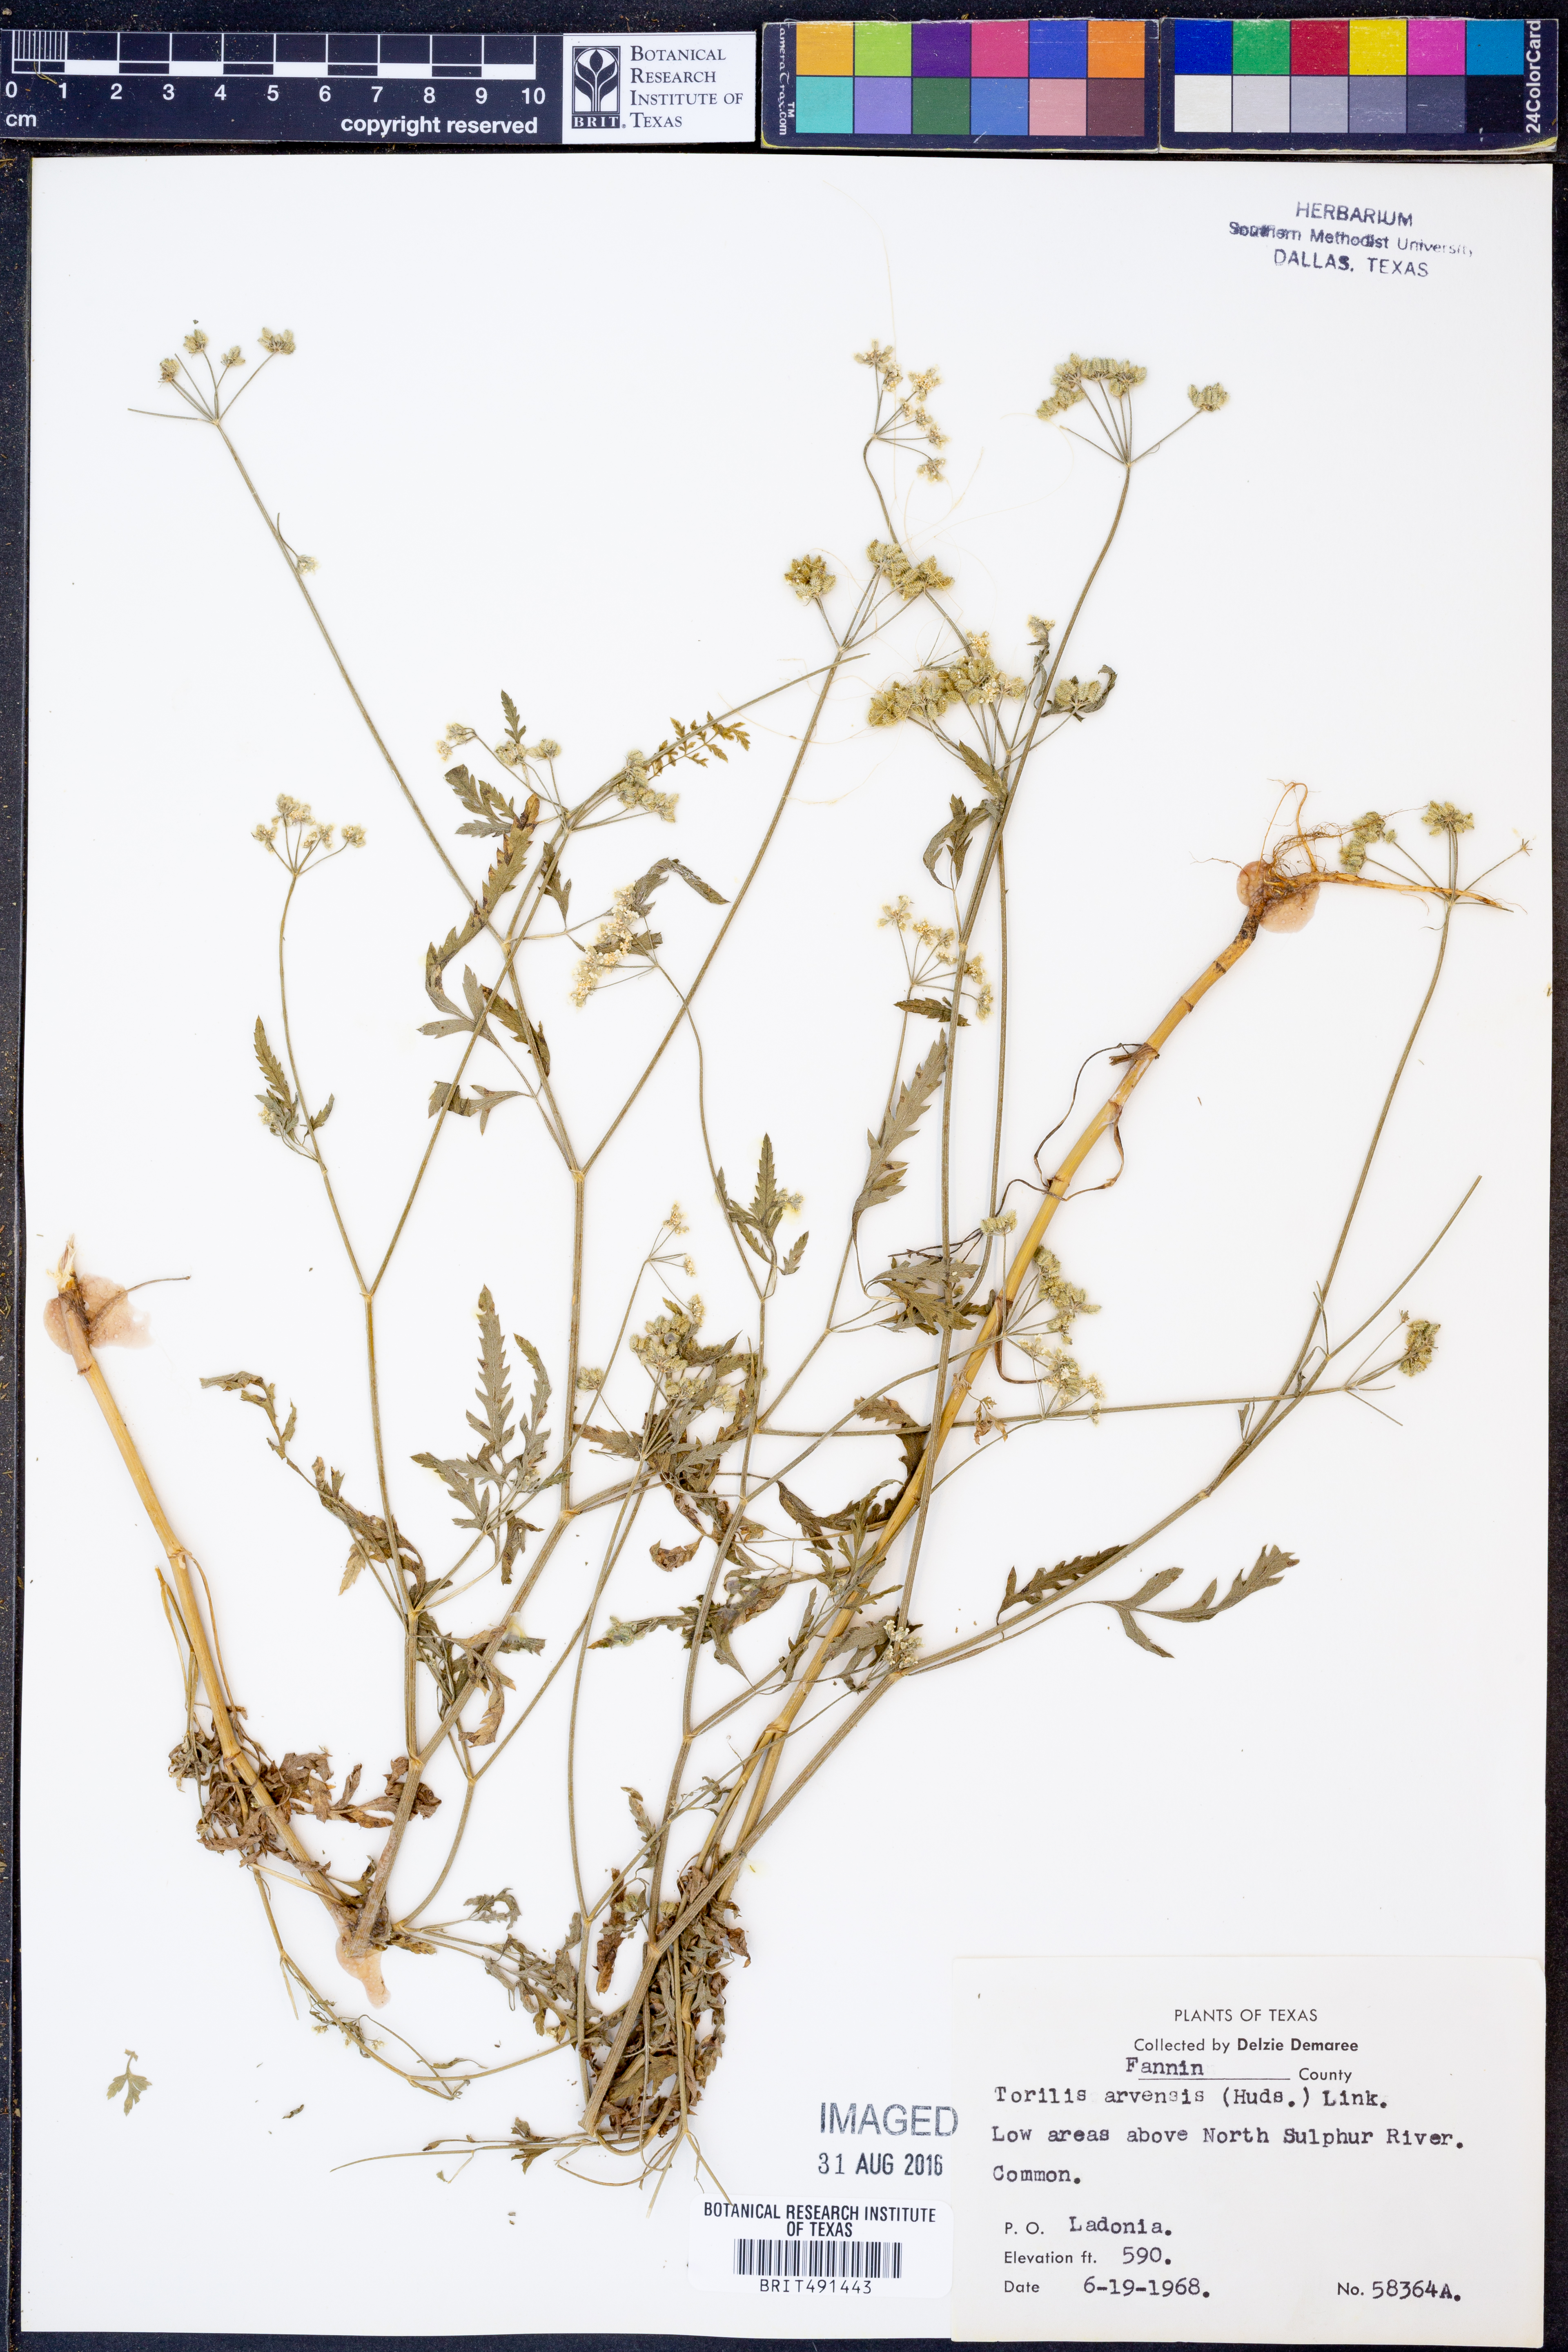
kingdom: Plantae
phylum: Tracheophyta
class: Magnoliopsida
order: Apiales
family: Apiaceae
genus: Torilis
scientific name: Torilis arvensis
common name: Spreading hedge-parsley
